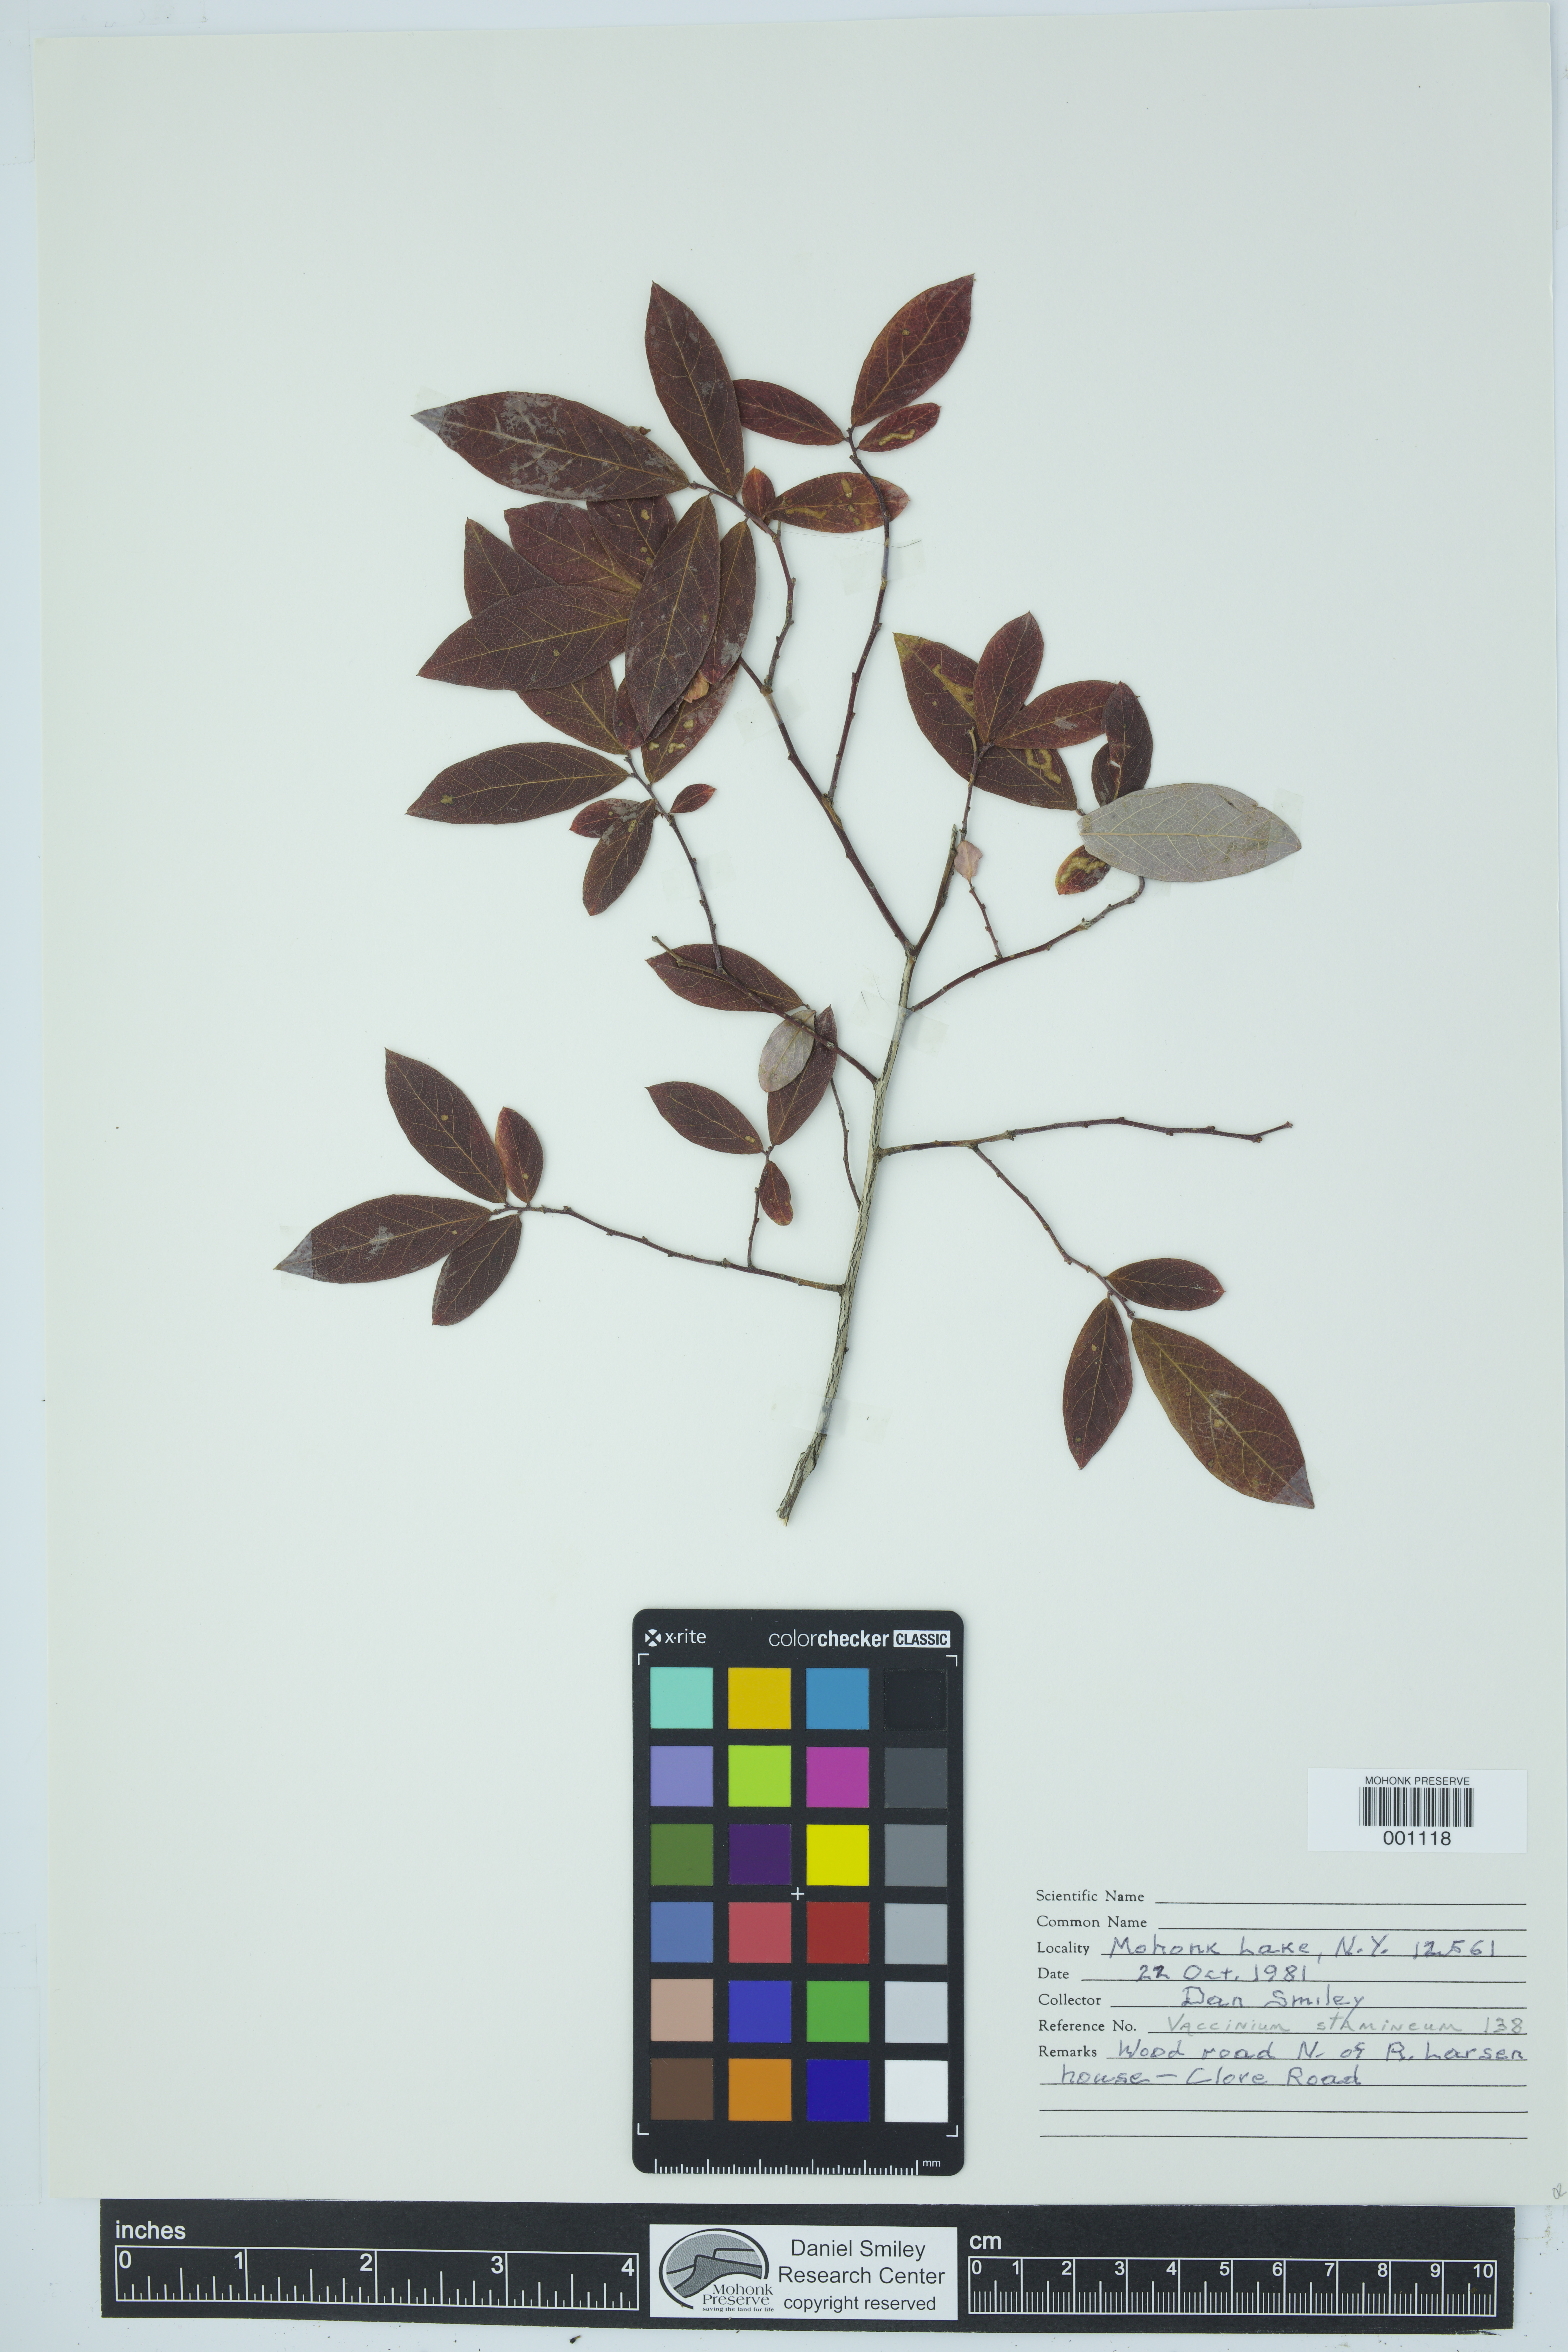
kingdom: Plantae
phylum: Tracheophyta
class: Magnoliopsida
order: Ericales
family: Ericaceae
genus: Vaccinium
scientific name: Vaccinium stamineum
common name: Deerberry
